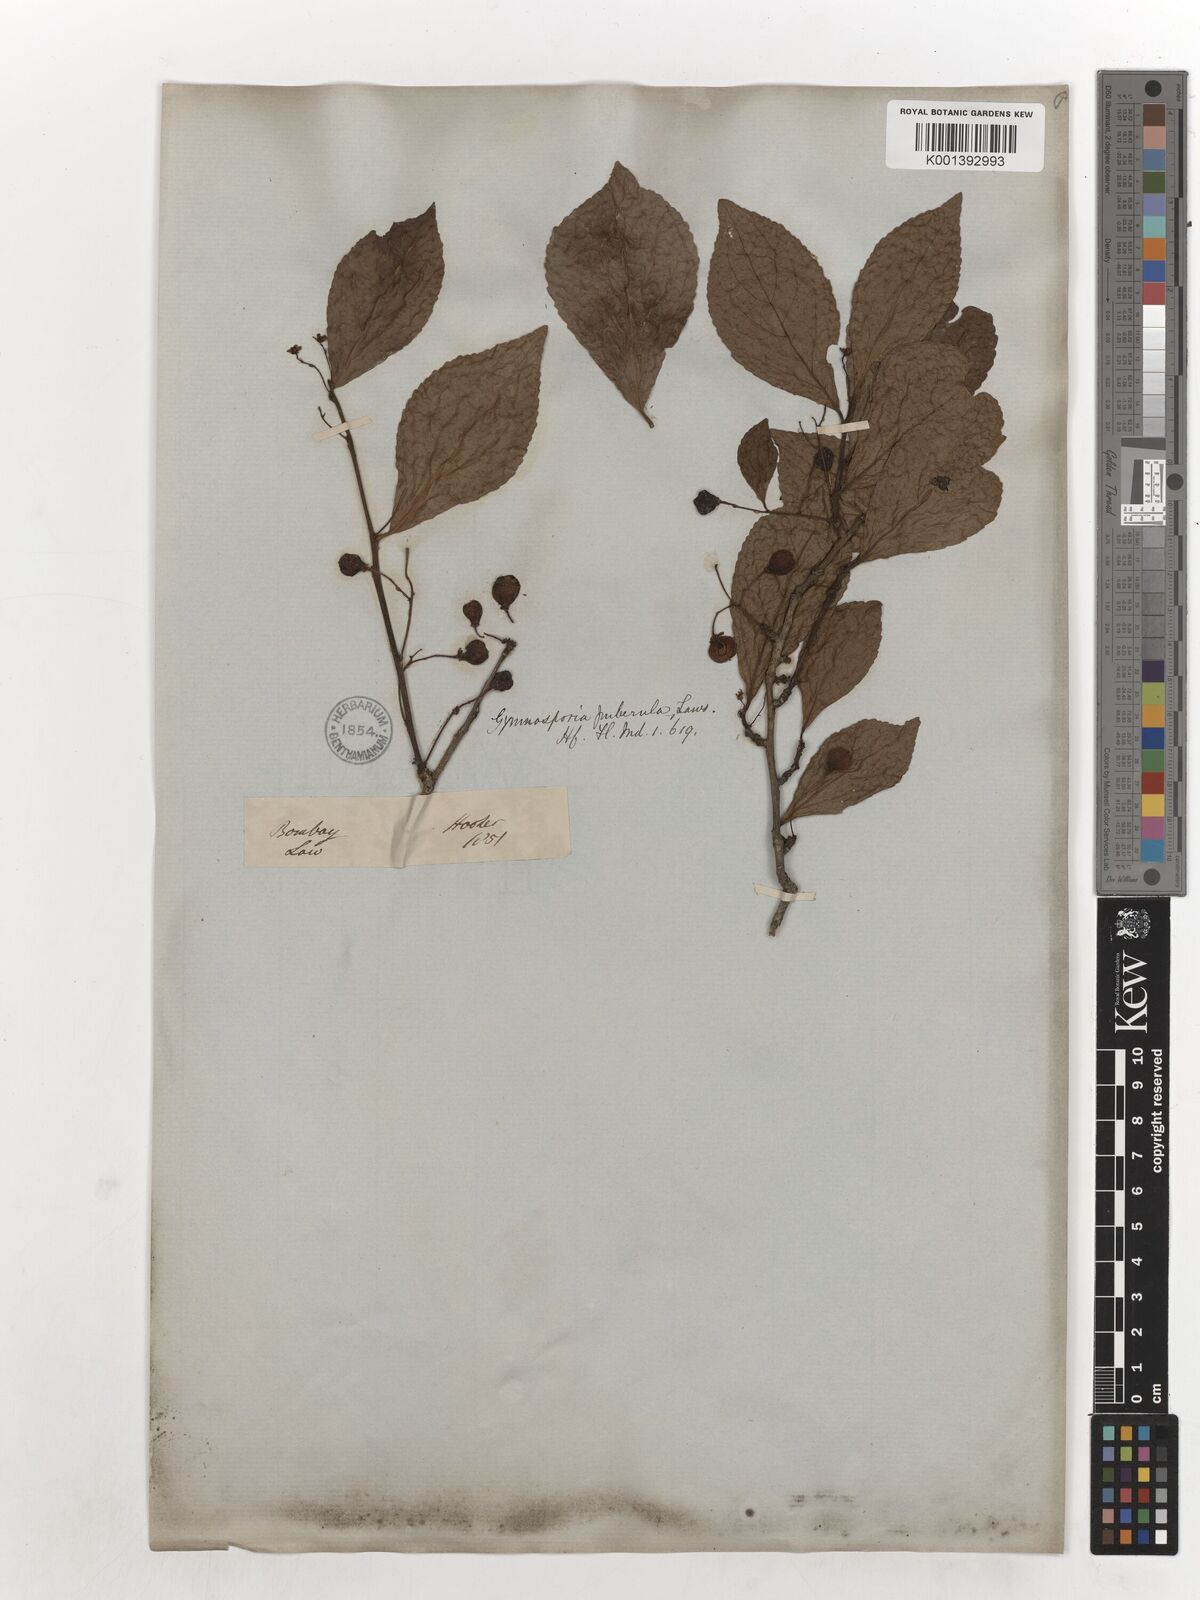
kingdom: Plantae
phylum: Tracheophyta
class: Magnoliopsida
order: Celastrales
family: Celastraceae
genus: Gymnosporia
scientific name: Gymnosporia puberula
